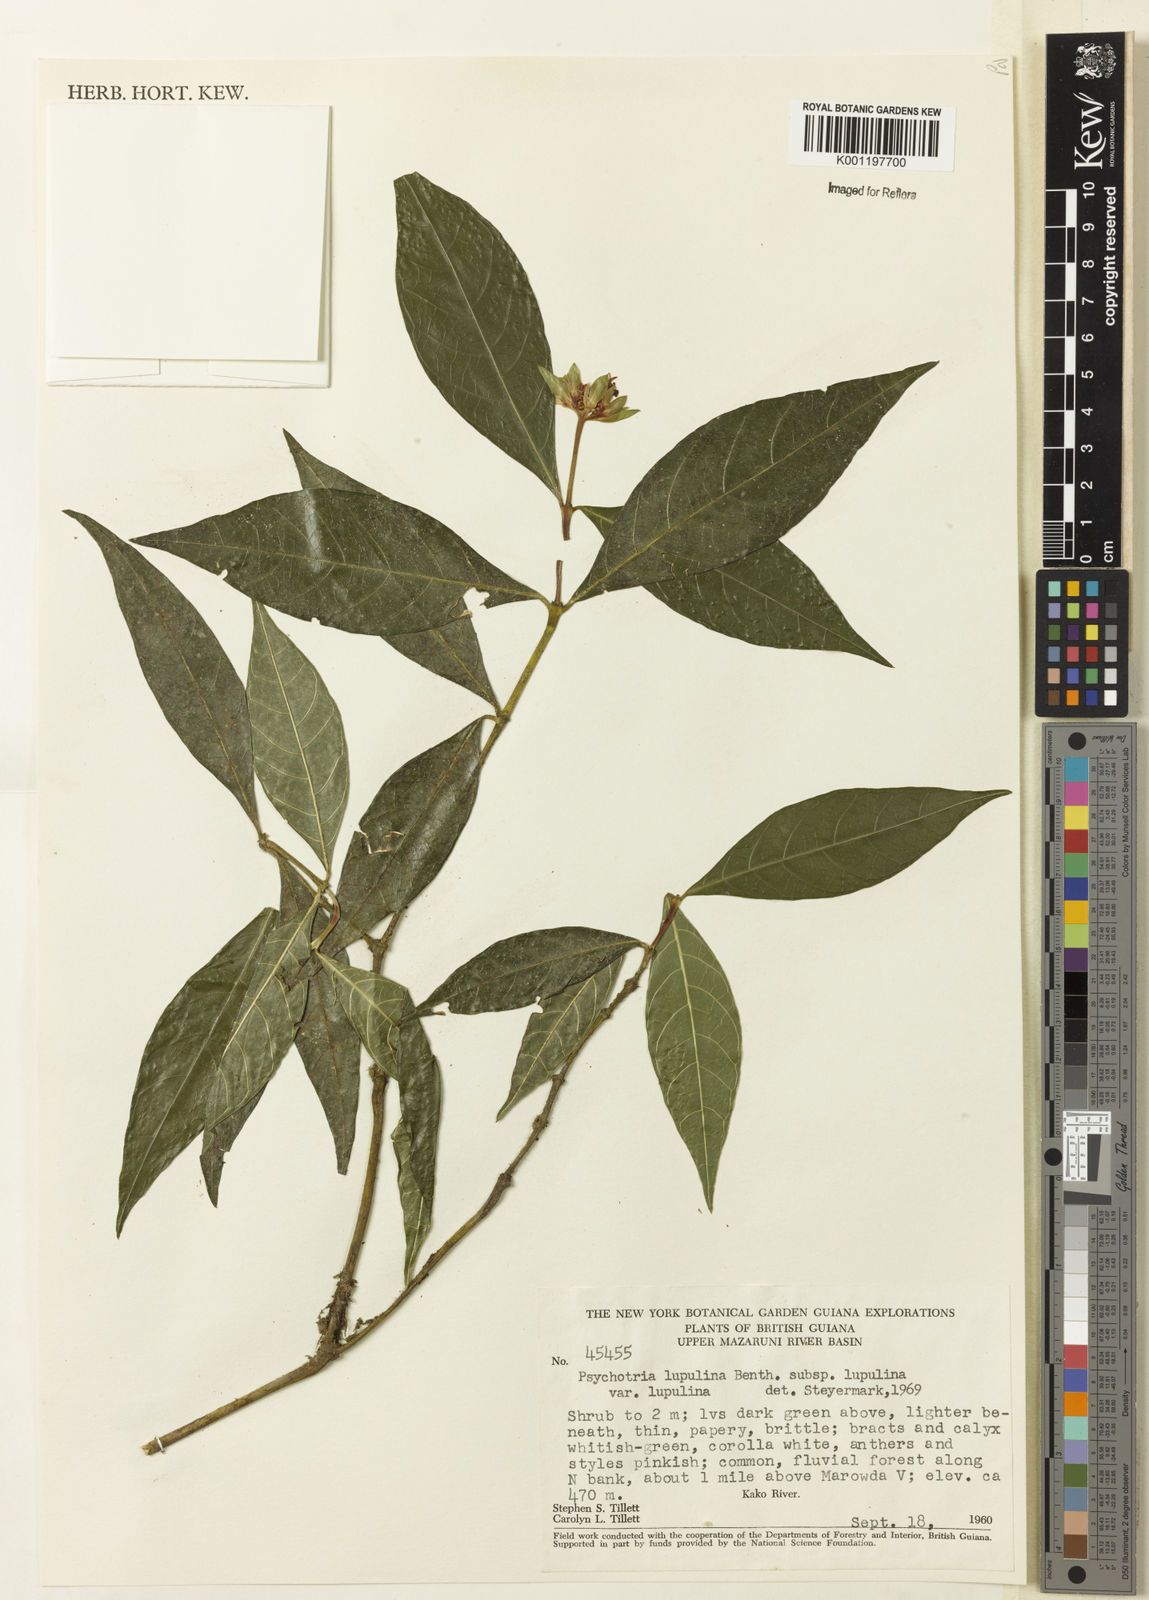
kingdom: Plantae
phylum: Tracheophyta
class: Magnoliopsida
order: Gentianales
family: Rubiaceae
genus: Palicourea
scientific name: Palicourea justiciifolia
